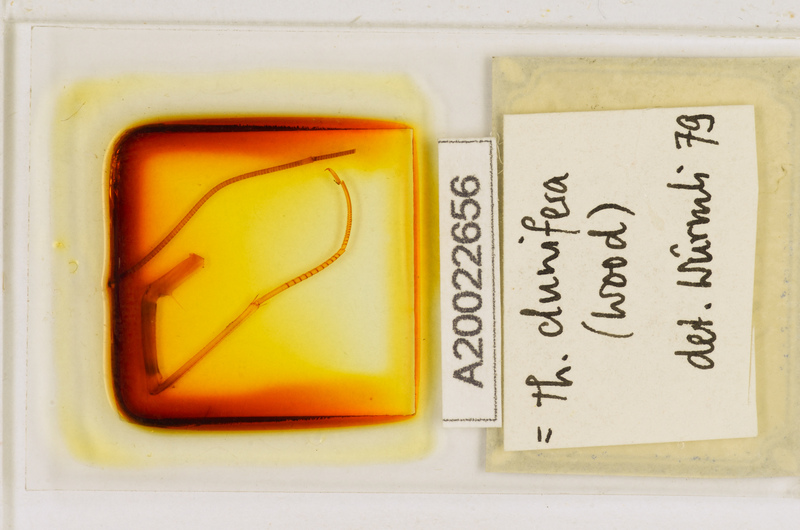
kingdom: Animalia
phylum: Arthropoda
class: Chilopoda
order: Scutigeromorpha
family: Scutigeridae
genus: Thereuopoda
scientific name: Thereuopoda clunifera
